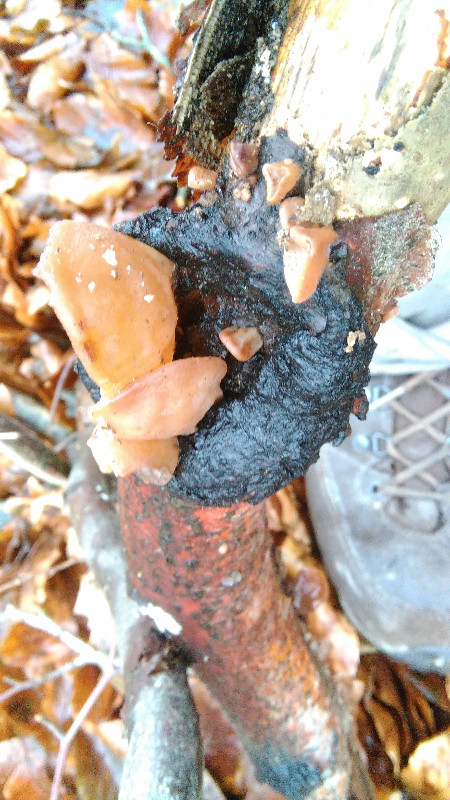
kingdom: Fungi
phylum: Basidiomycota
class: Agaricomycetes
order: Auriculariales
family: Auriculariaceae
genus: Auricularia
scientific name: Auricularia auricula-judae
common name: almindelig judasøre
